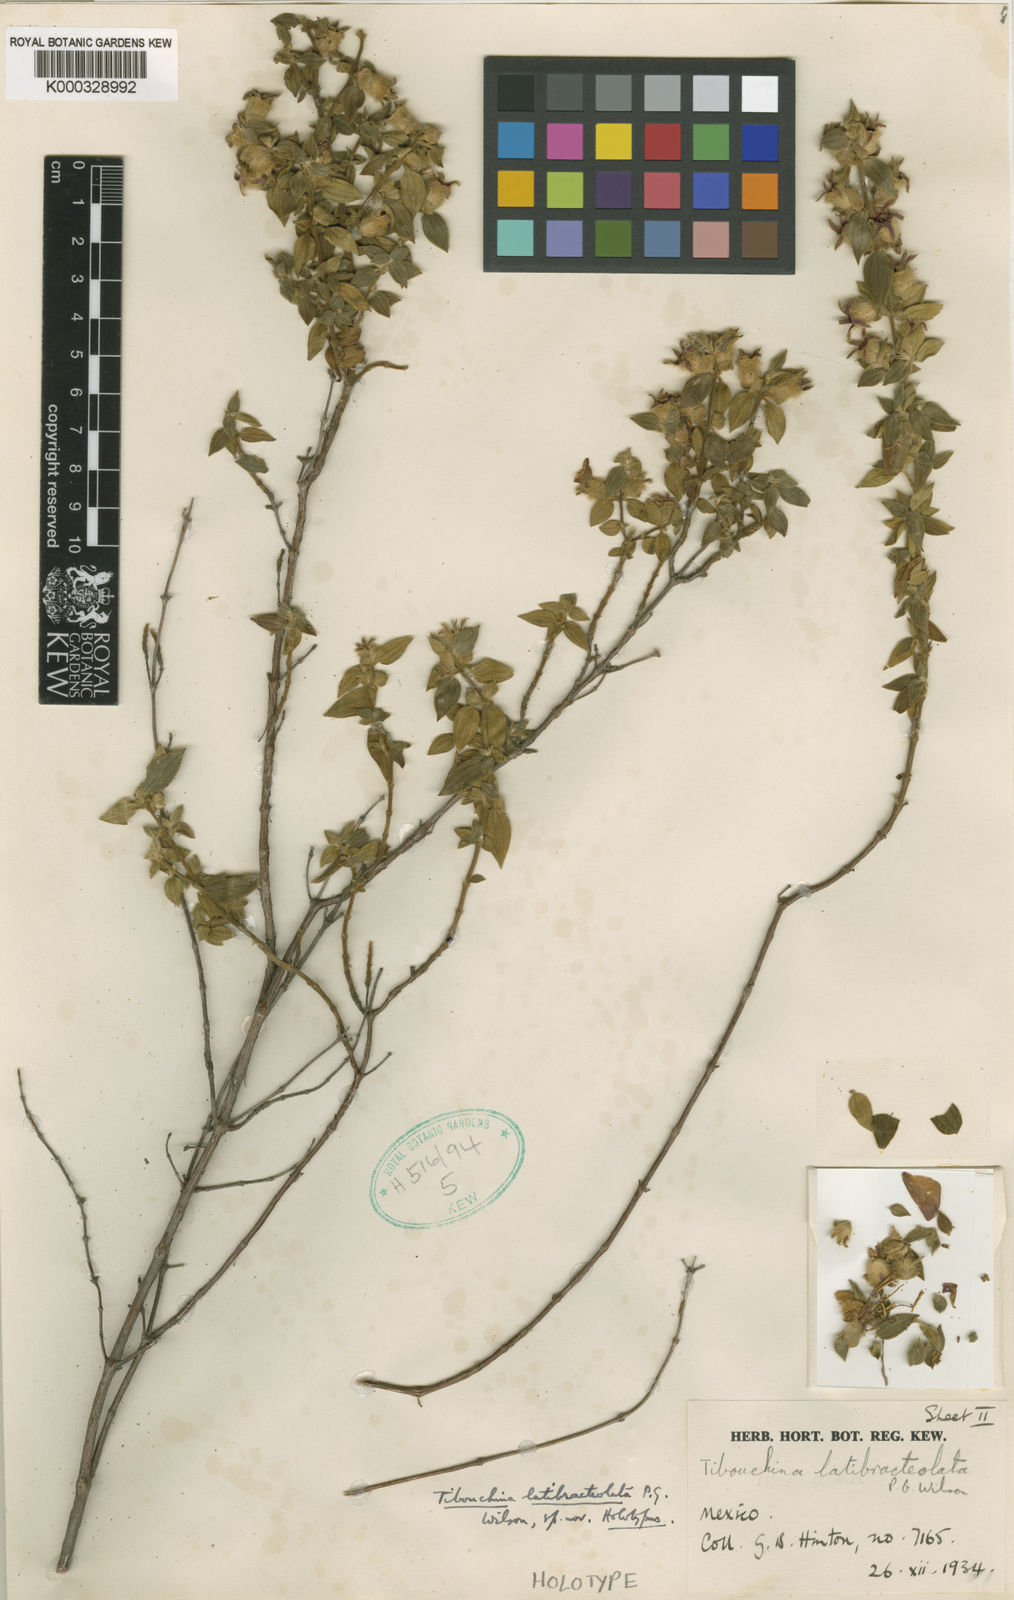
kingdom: Plantae
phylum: Tracheophyta
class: Magnoliopsida
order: Myrtales
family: Melastomataceae
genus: Tibouchina
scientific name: Tibouchina
